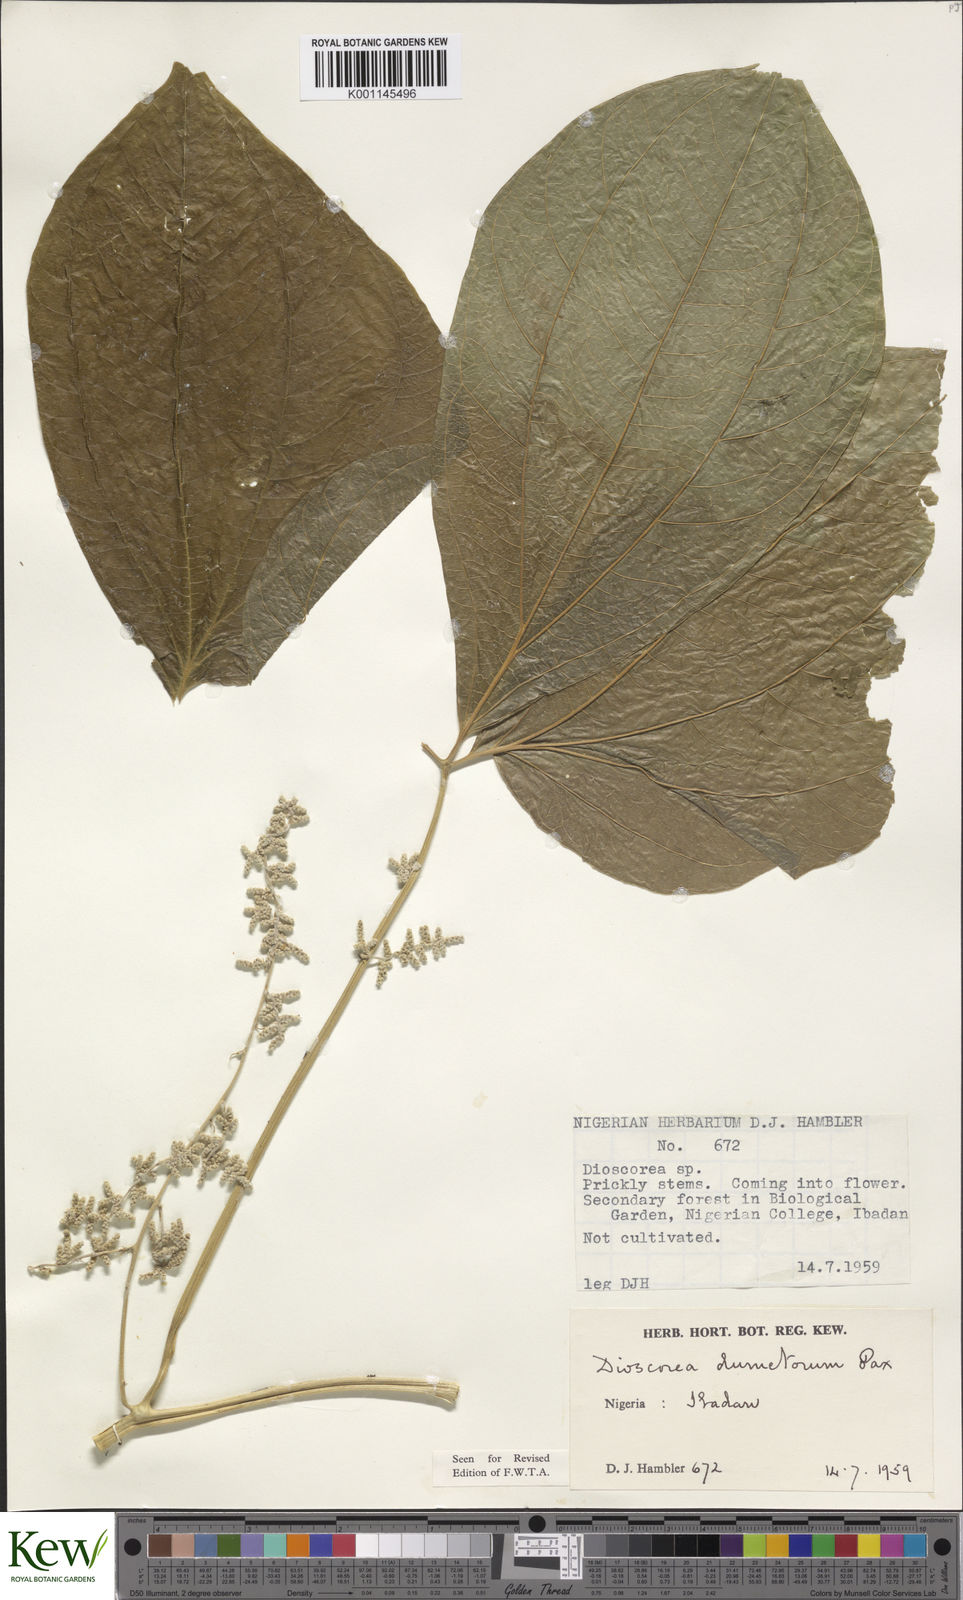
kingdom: Plantae
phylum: Tracheophyta
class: Liliopsida
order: Dioscoreales
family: Dioscoreaceae
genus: Dioscorea
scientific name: Dioscorea dumetorum
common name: African bitter yam
